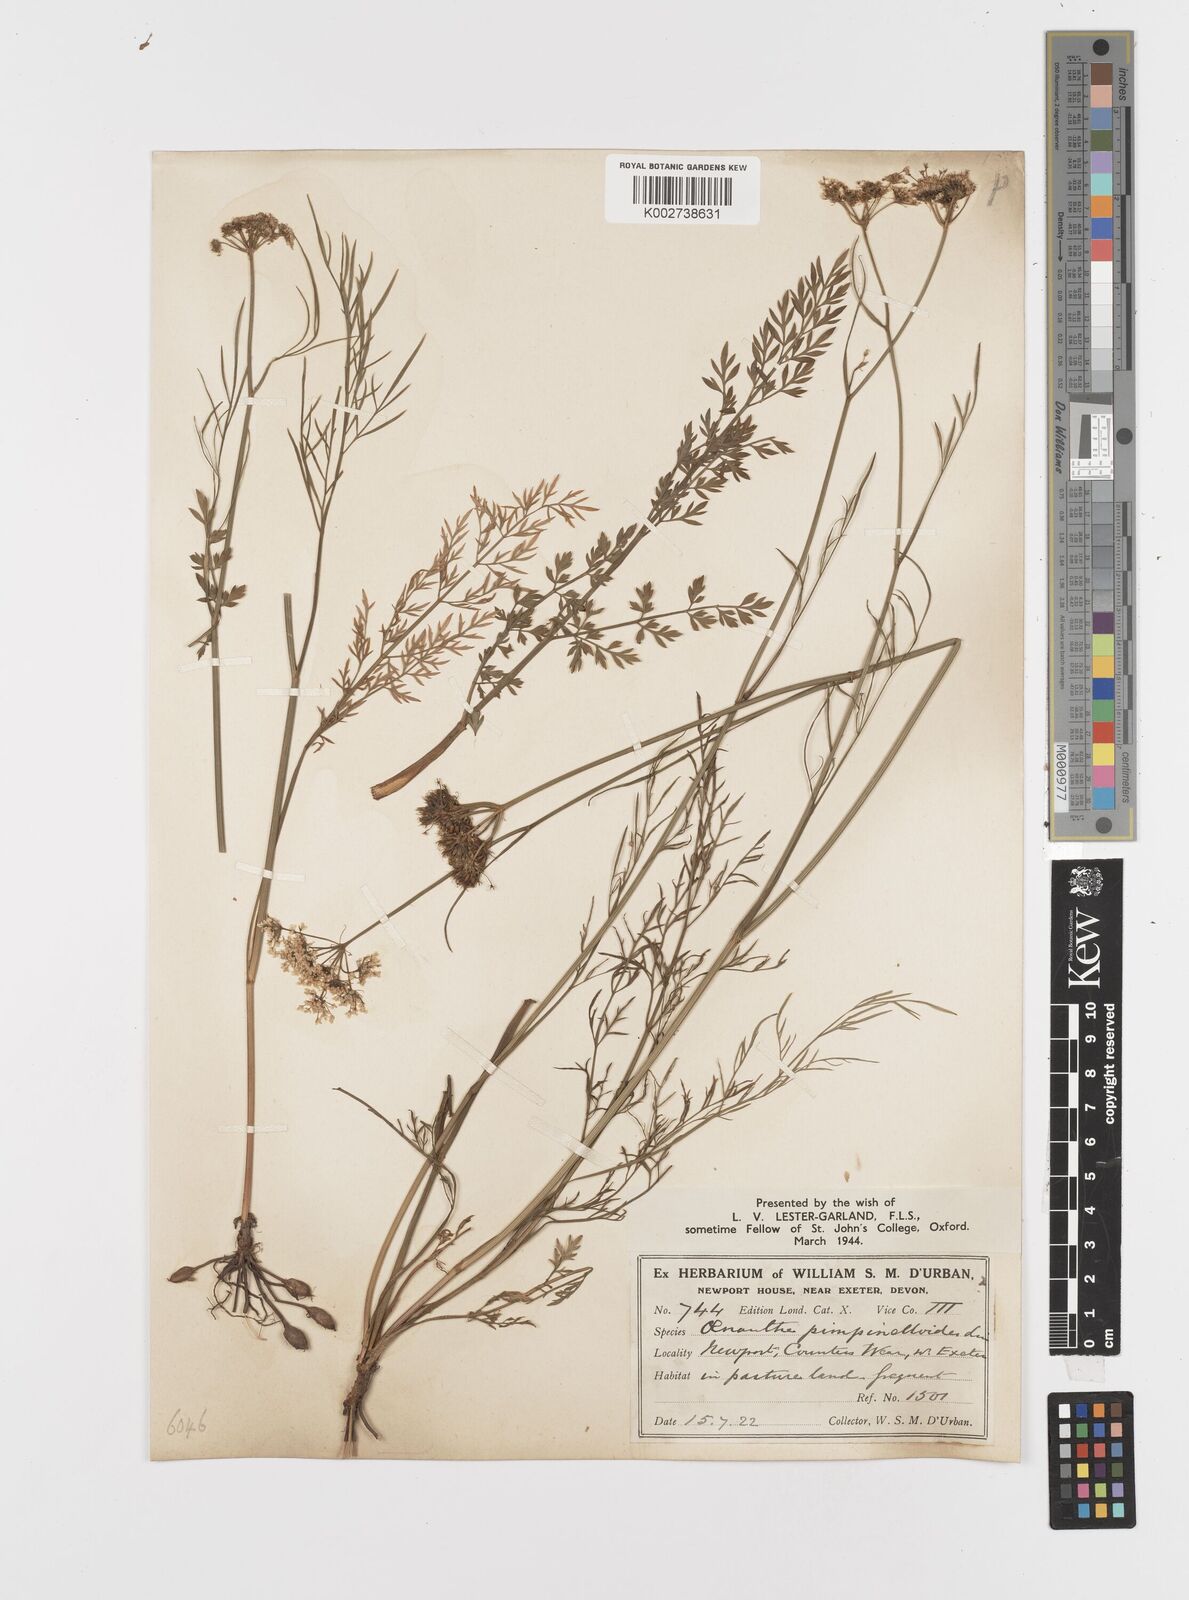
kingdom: Plantae
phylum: Tracheophyta
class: Magnoliopsida
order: Apiales
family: Apiaceae
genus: Oenanthe
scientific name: Oenanthe pimpinelloides
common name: Corky-fruited water-dropwort
